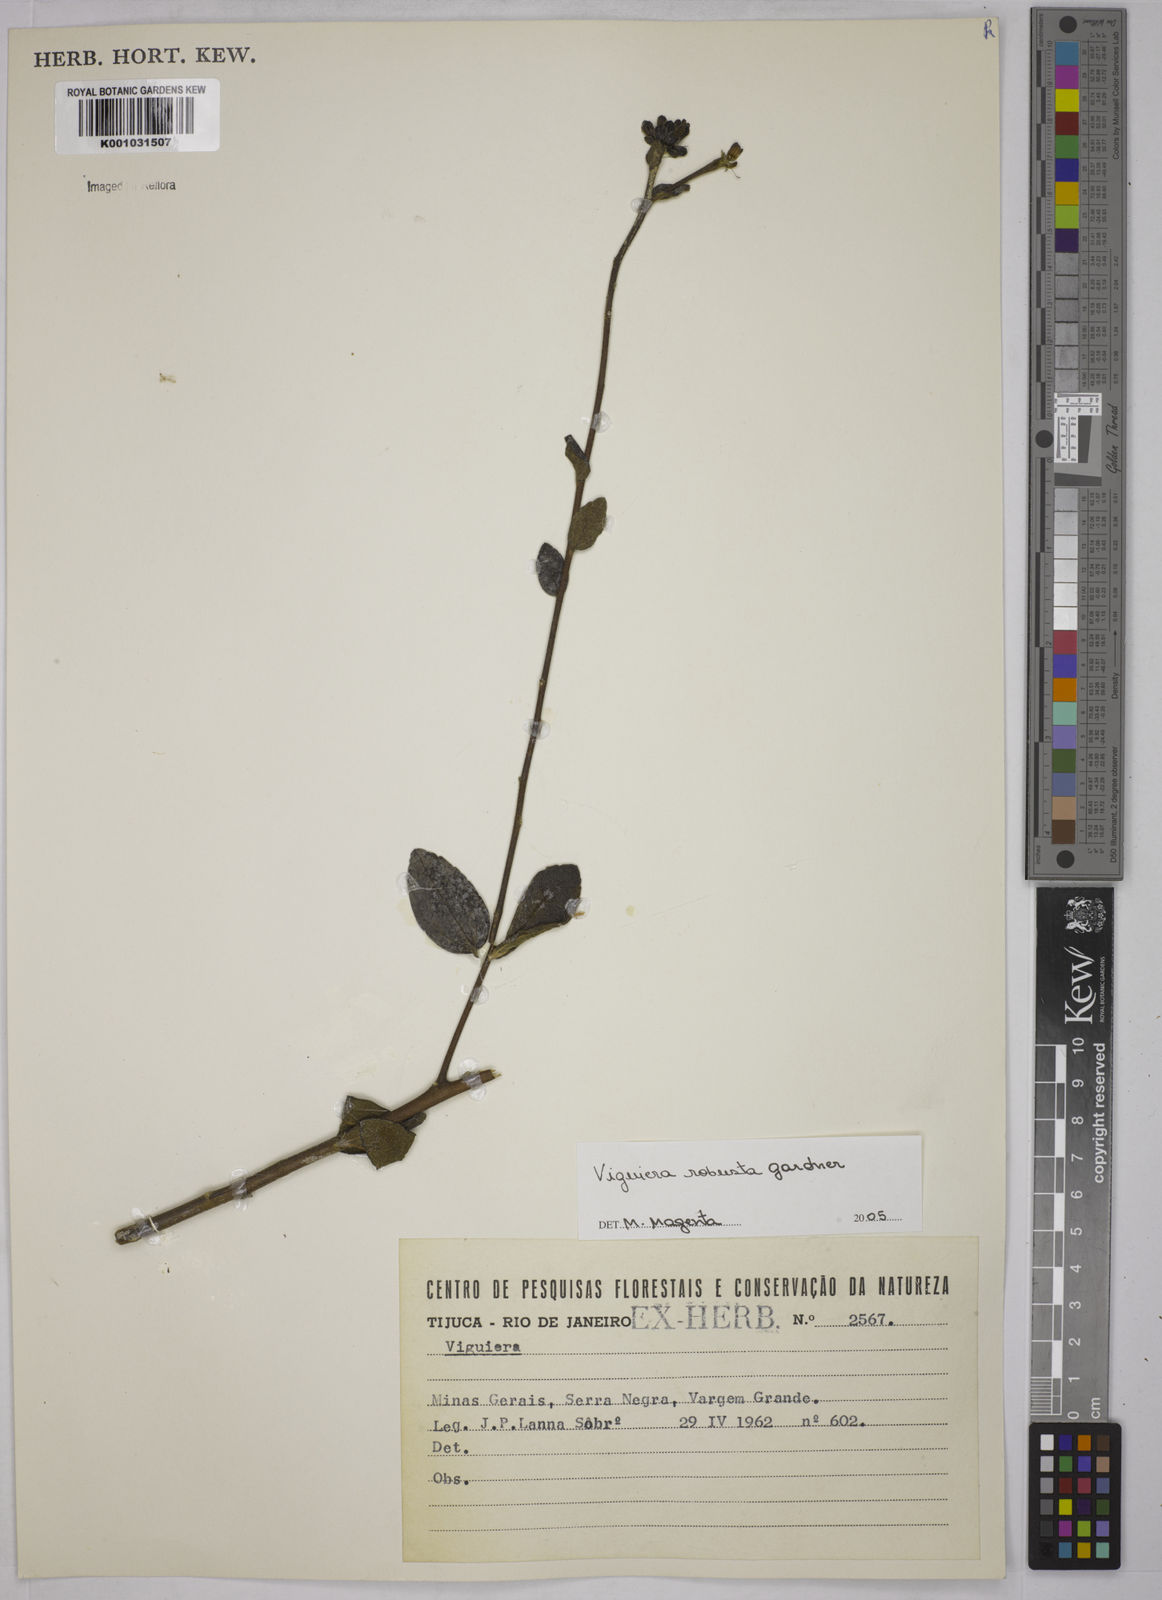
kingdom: Plantae
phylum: Tracheophyta
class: Magnoliopsida
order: Asterales
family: Asteraceae
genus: Aldama
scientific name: Aldama robusta
